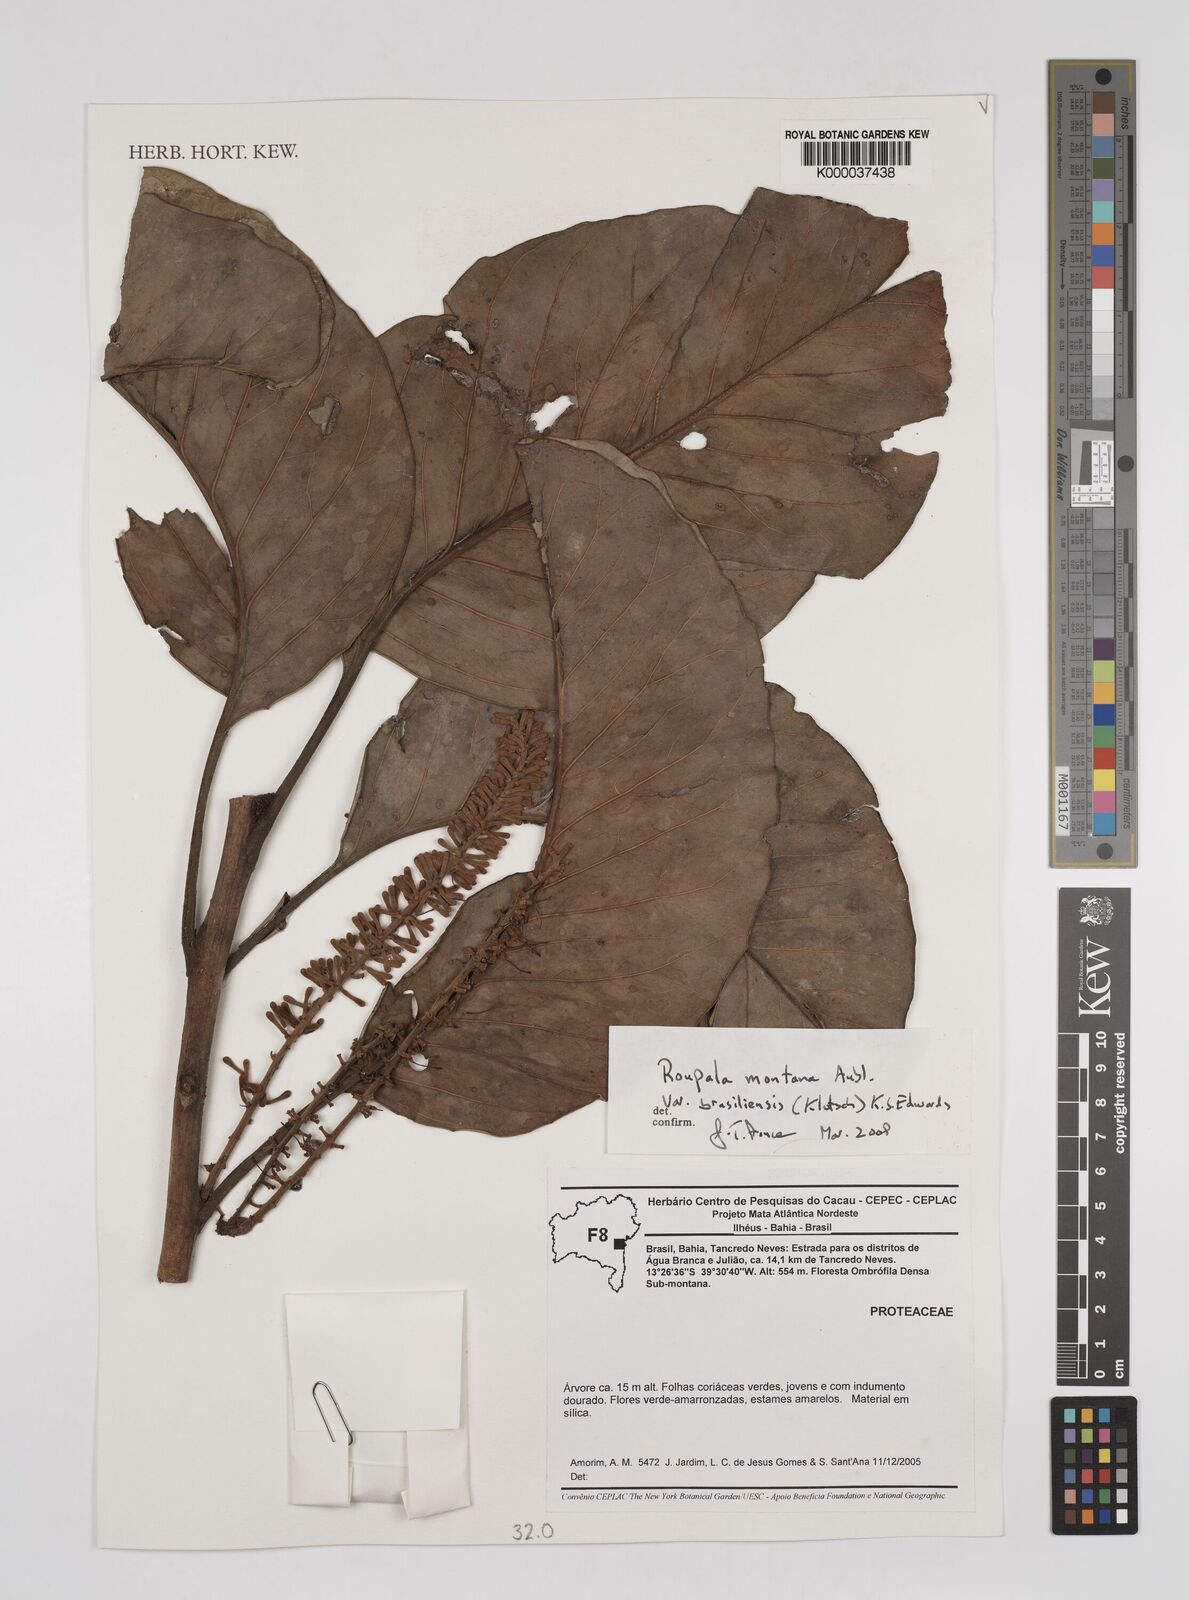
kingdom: Plantae
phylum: Tracheophyta
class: Magnoliopsida
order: Proteales
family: Proteaceae
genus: Roupala
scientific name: Roupala montana
